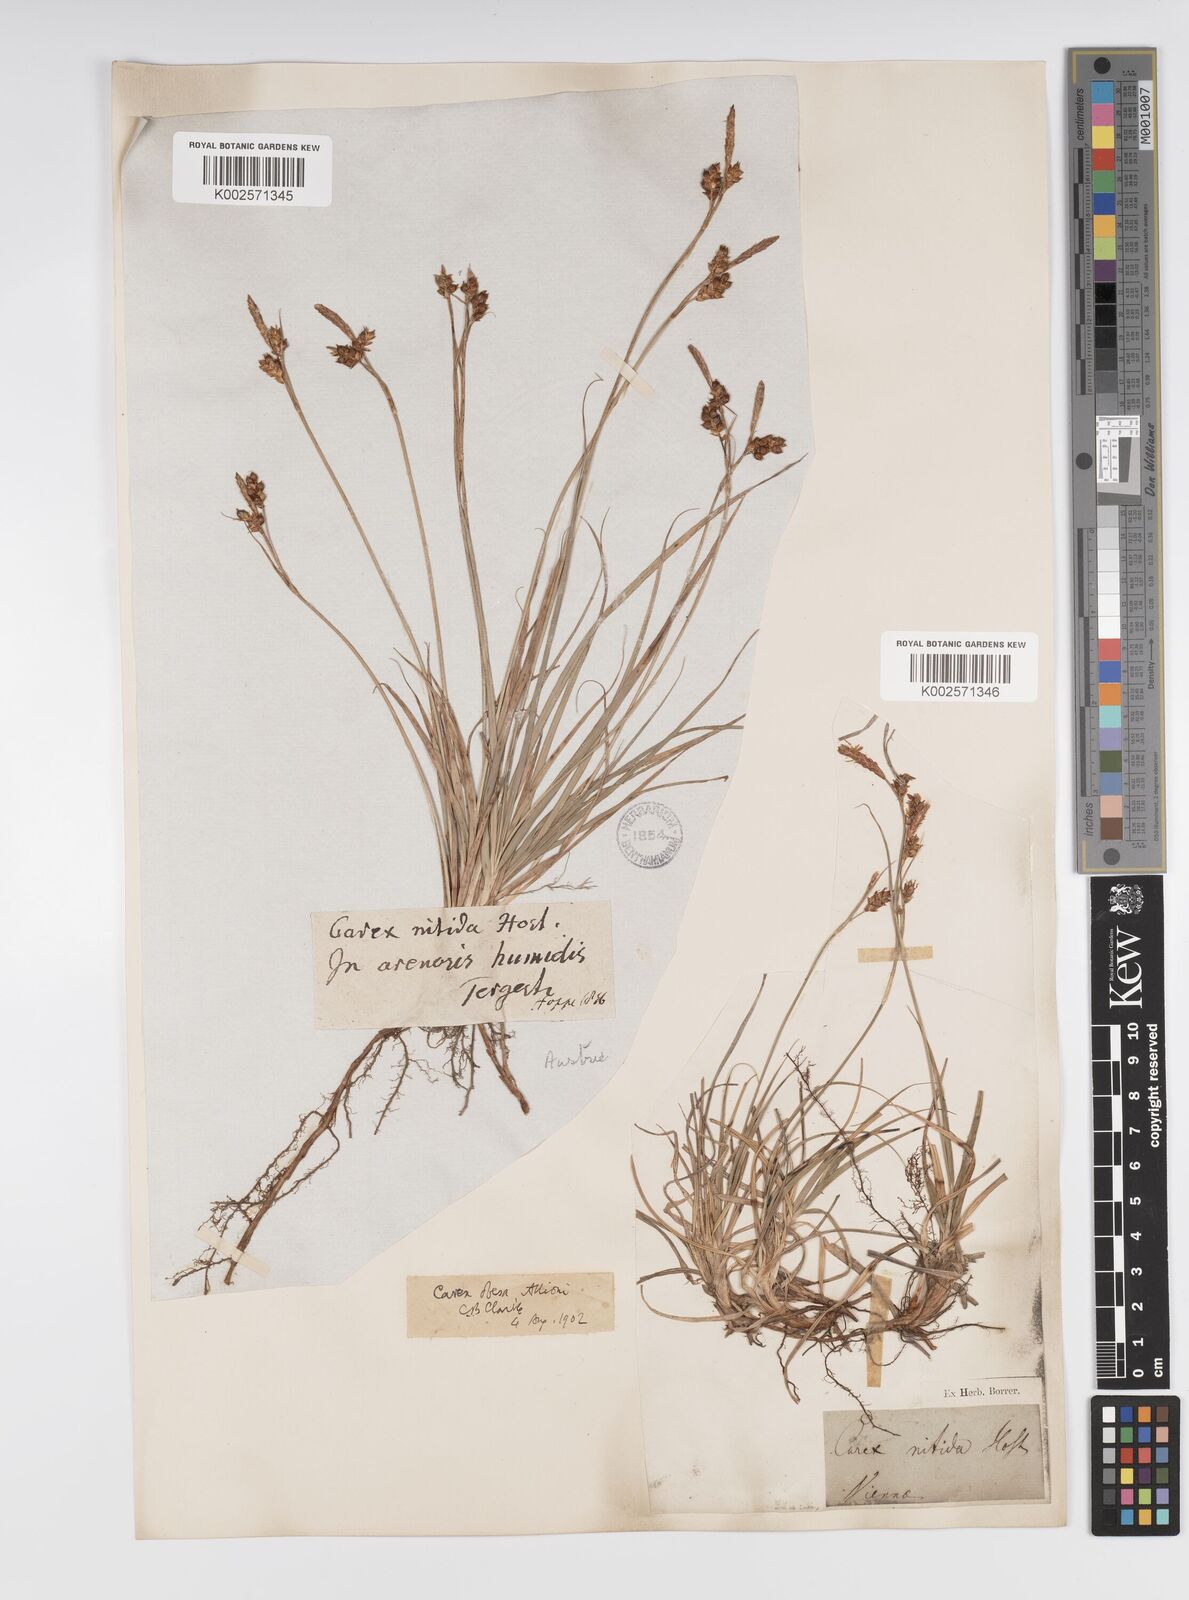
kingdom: Plantae
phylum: Tracheophyta
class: Liliopsida
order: Poales
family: Cyperaceae
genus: Carex
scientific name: Carex liparocarpos
